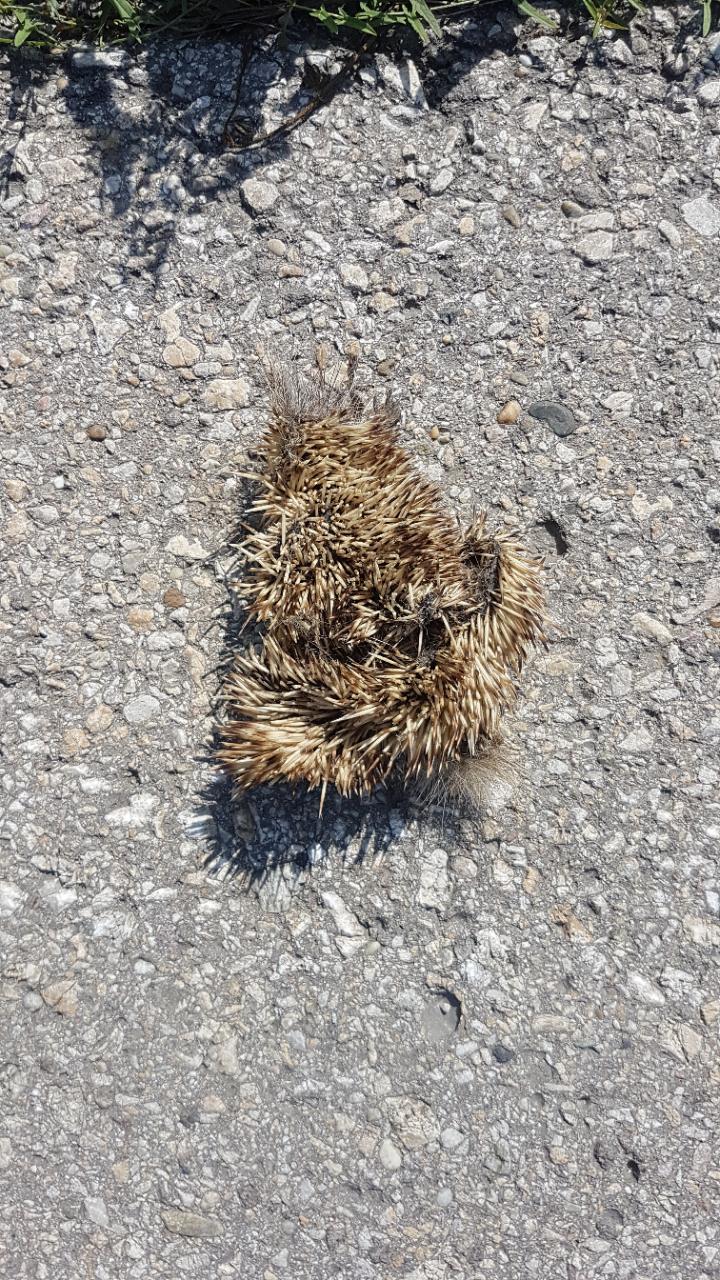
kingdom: Animalia
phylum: Chordata
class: Mammalia
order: Erinaceomorpha
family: Erinaceidae
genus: Erinaceus
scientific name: Erinaceus
